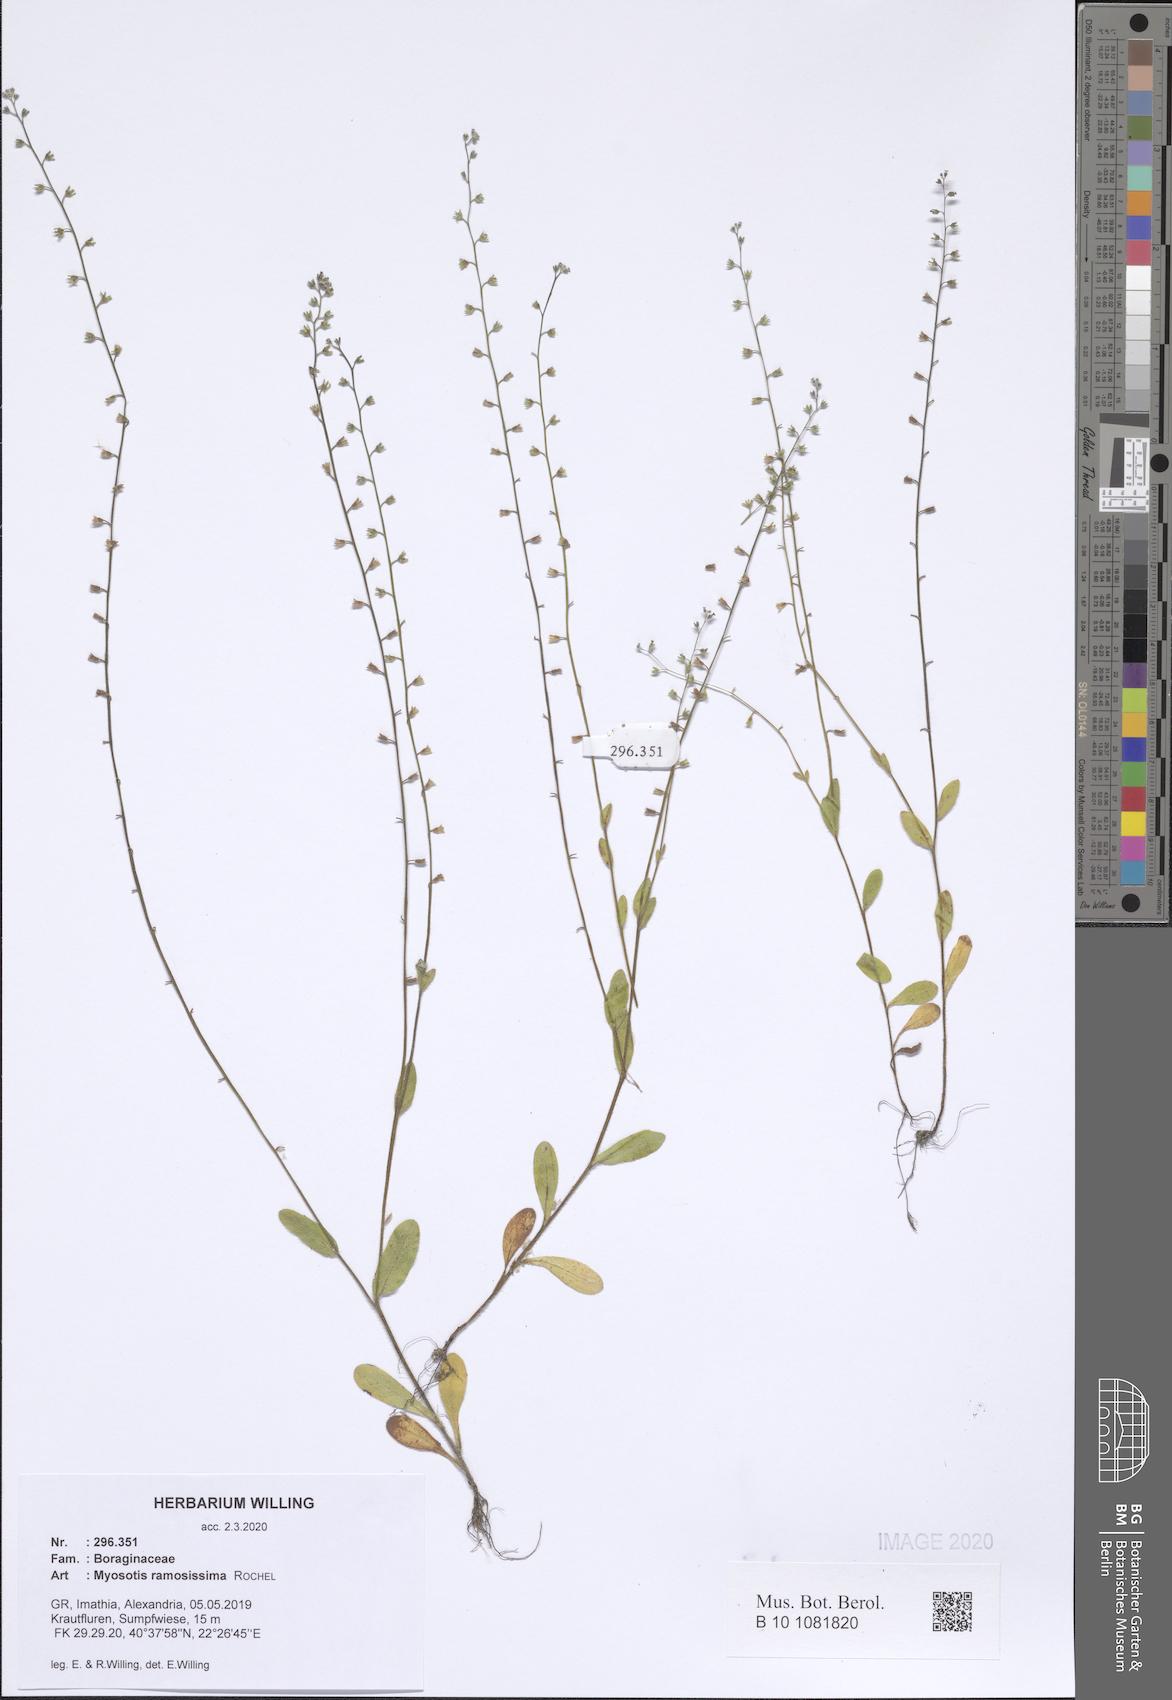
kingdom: Plantae
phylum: Tracheophyta
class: Magnoliopsida
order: Boraginales
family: Boraginaceae
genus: Myosotis
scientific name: Myosotis ramosissima
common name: Early forget-me-not
